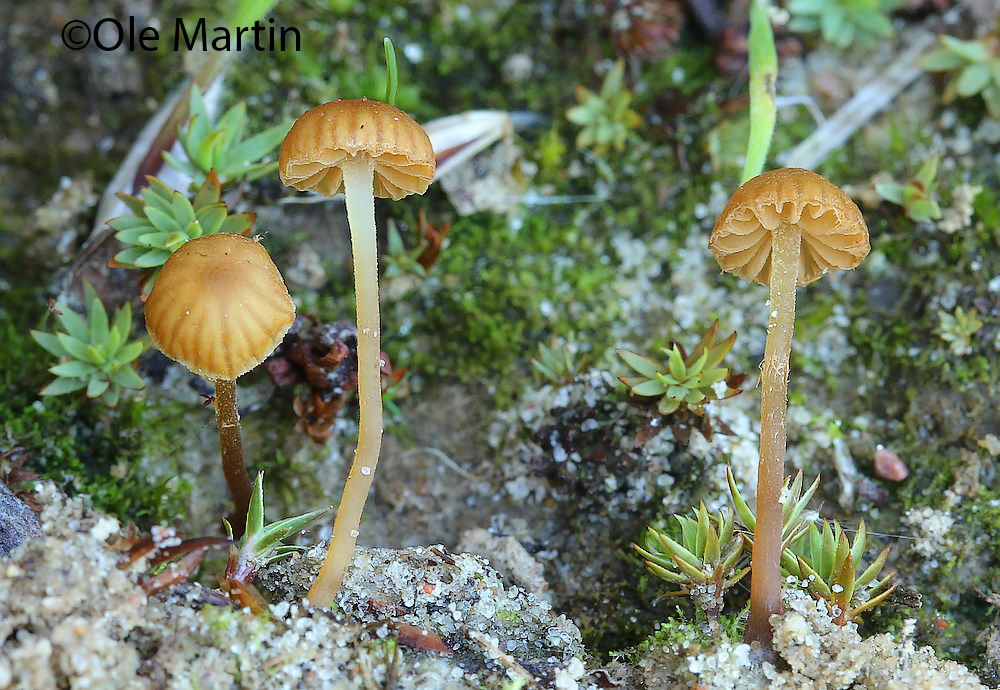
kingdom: Fungi
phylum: Basidiomycota
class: Agaricomycetes
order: Agaricales
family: Hymenogastraceae
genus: Galerina
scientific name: Galerina alluviana
